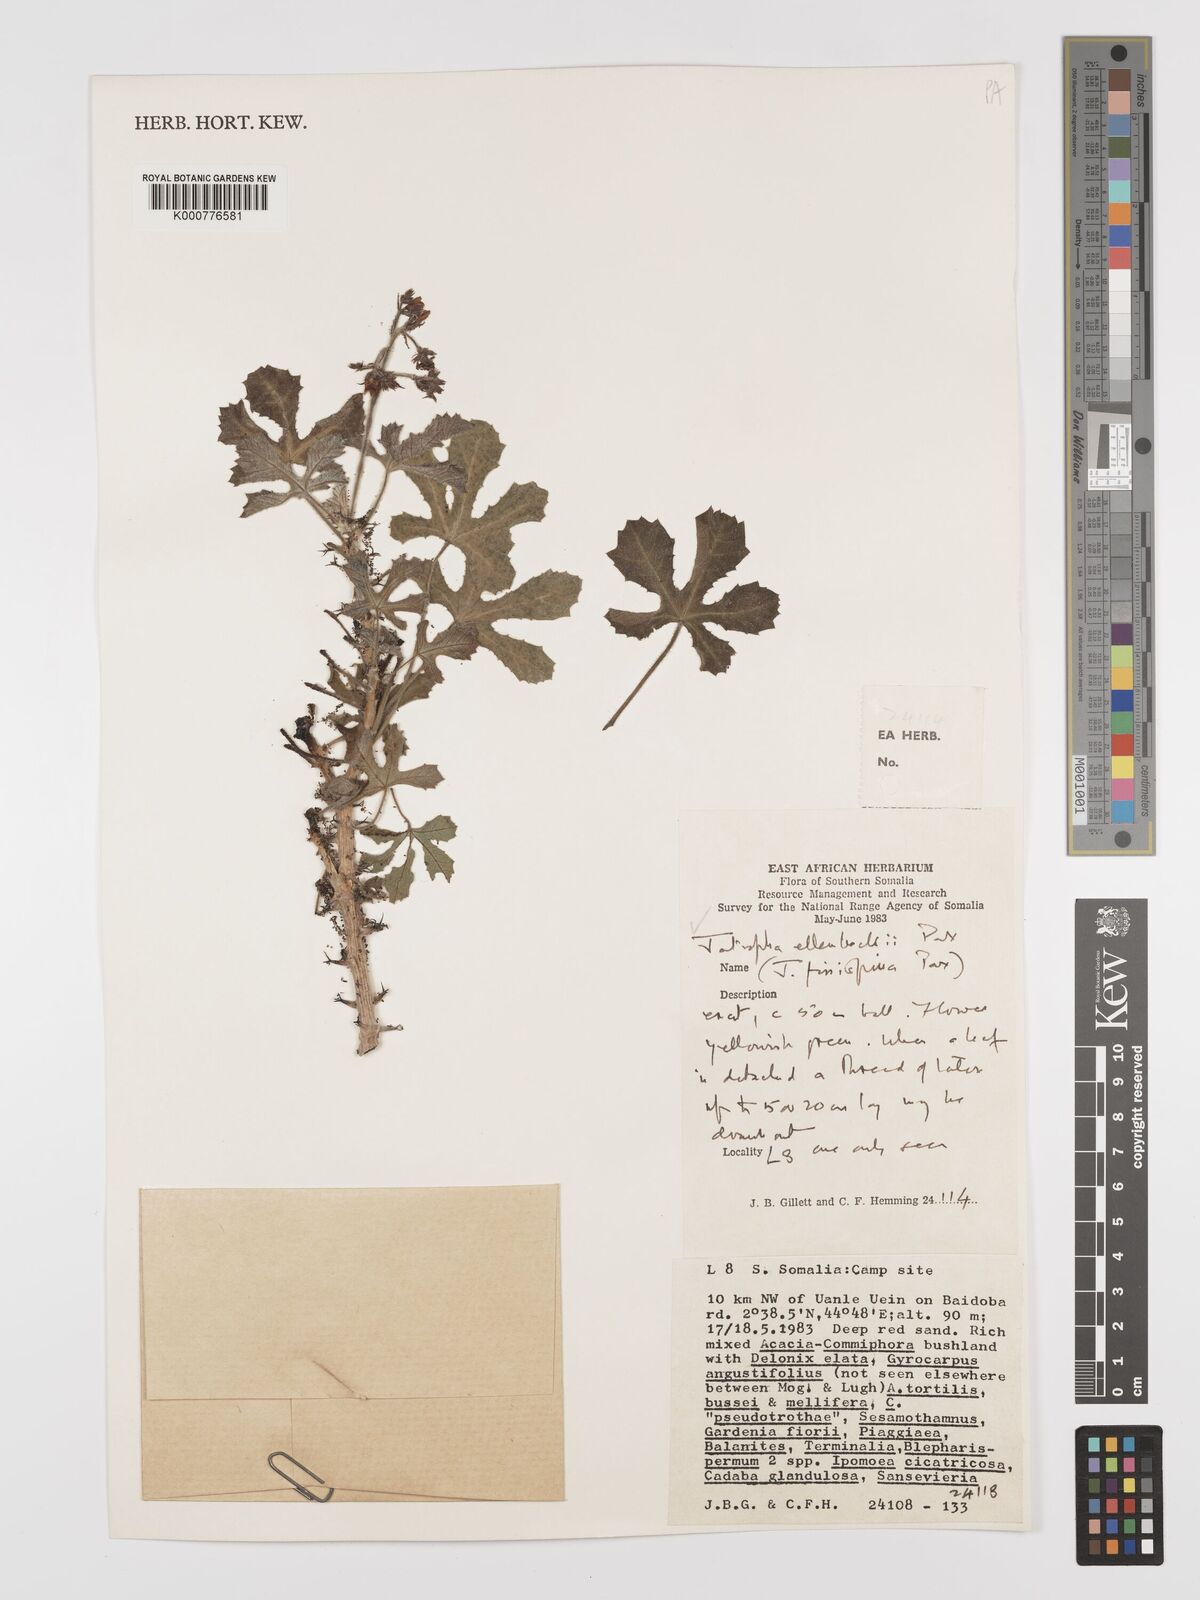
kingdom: Plantae
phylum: Tracheophyta
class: Magnoliopsida
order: Malpighiales
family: Euphorbiaceae
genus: Jatropha
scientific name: Jatropha ellenbeckii
